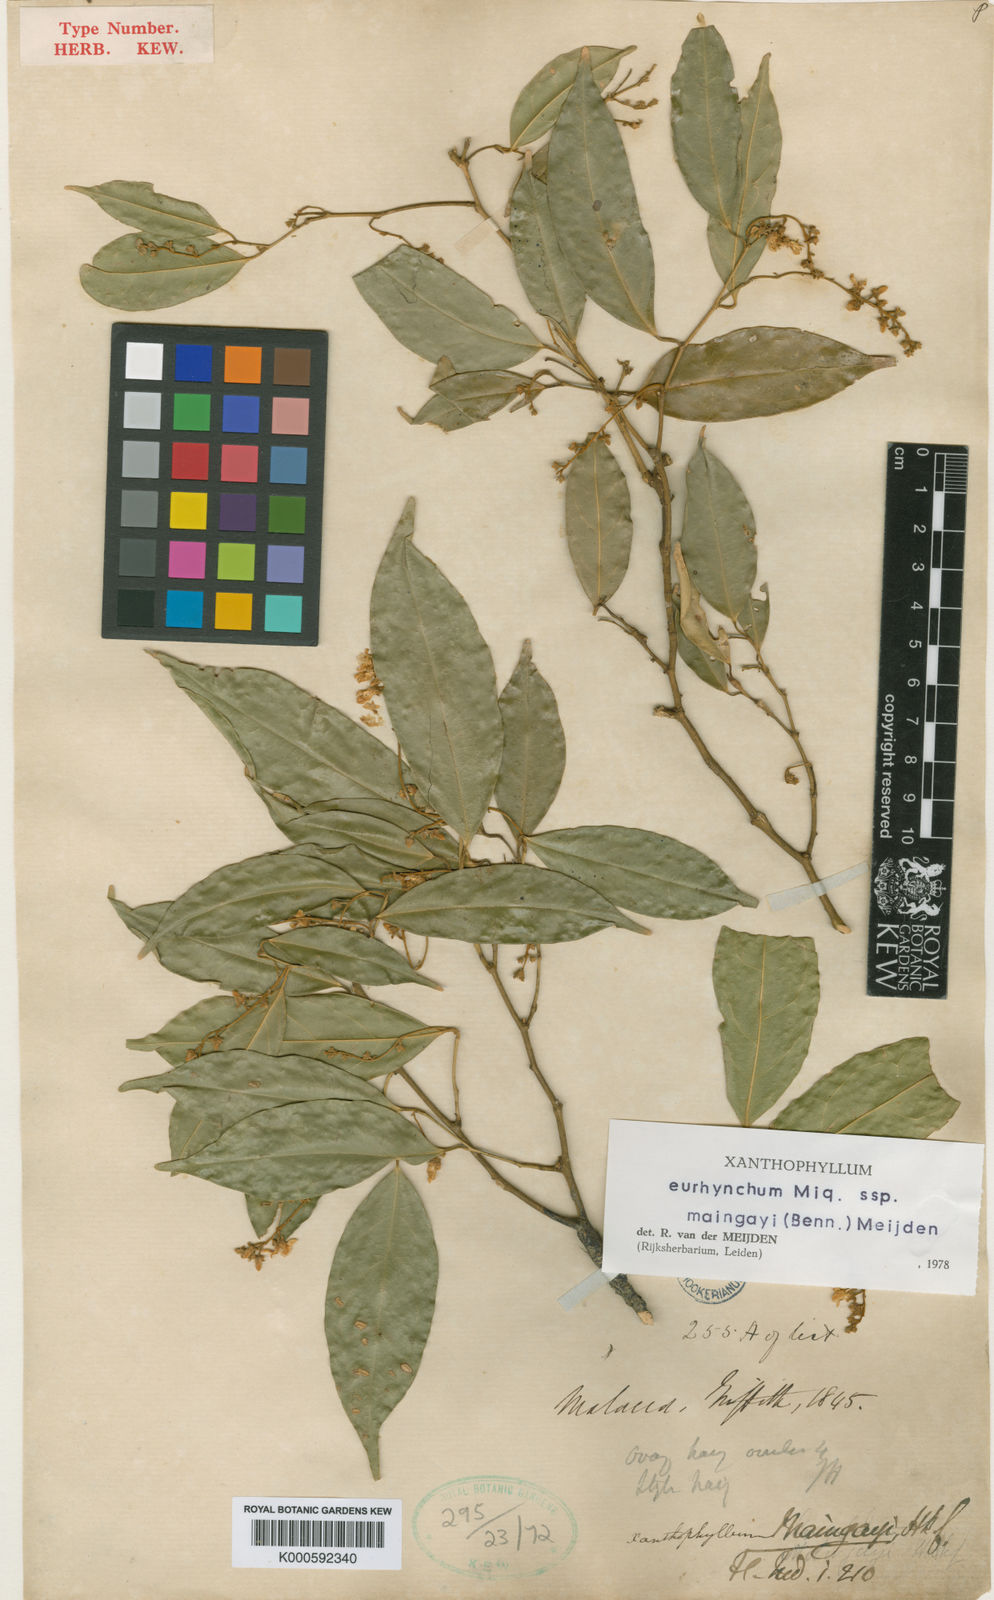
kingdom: Plantae
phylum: Tracheophyta
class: Magnoliopsida
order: Fabales
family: Polygalaceae
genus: Xanthophyllum
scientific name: Xanthophyllum eurhynchum
